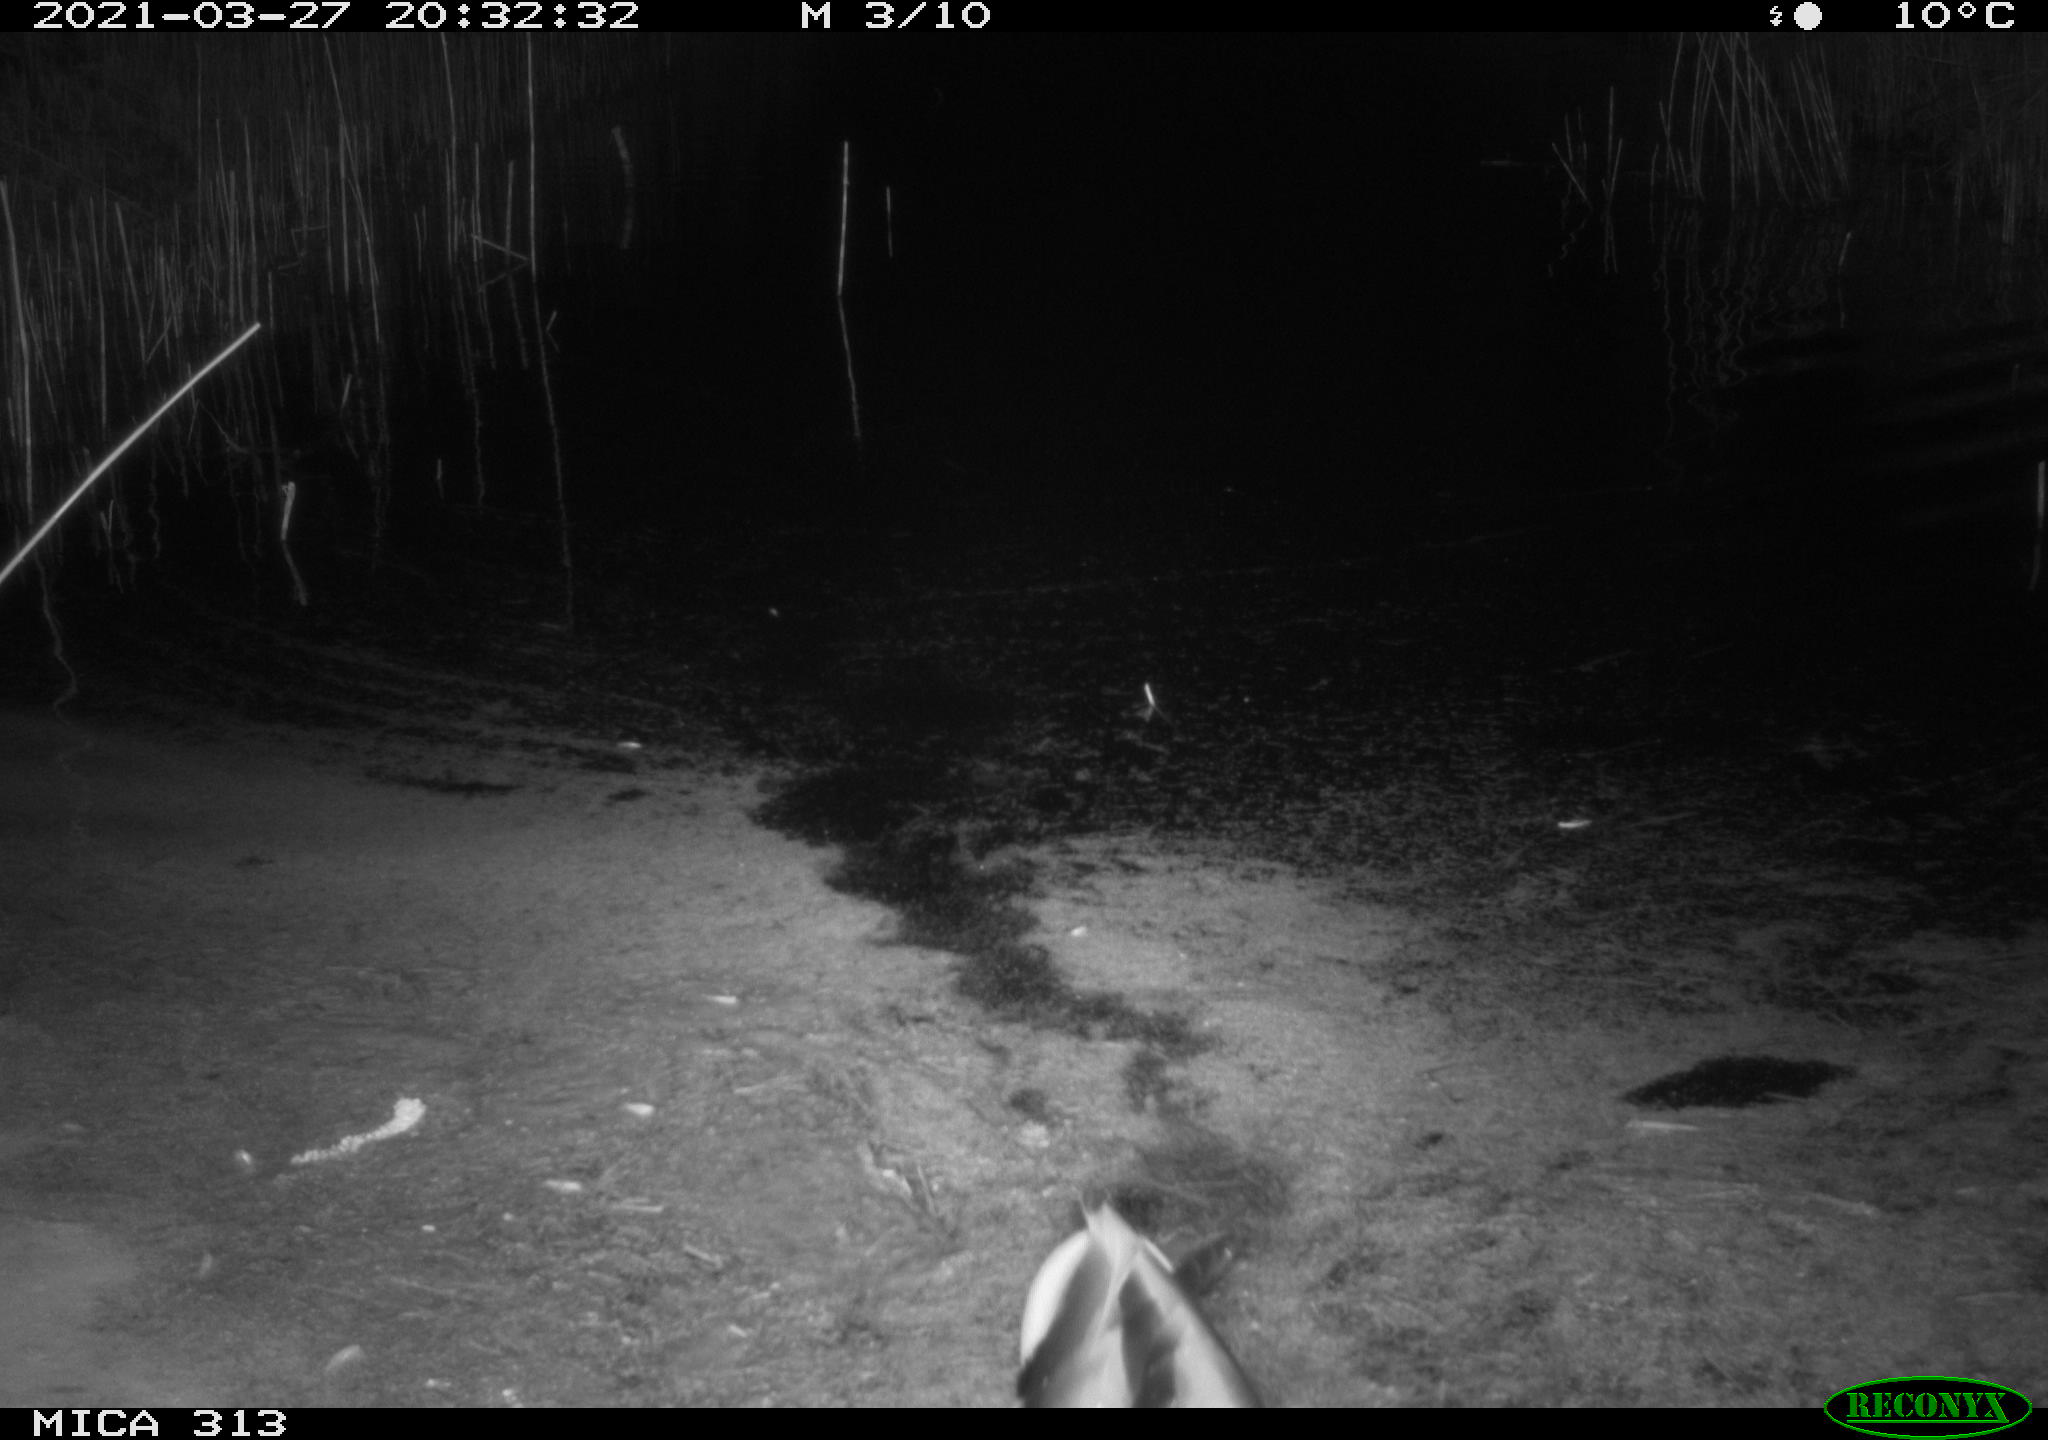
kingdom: Animalia
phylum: Chordata
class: Aves
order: Anseriformes
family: Anatidae
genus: Anas
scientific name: Anas platyrhynchos
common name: Mallard
